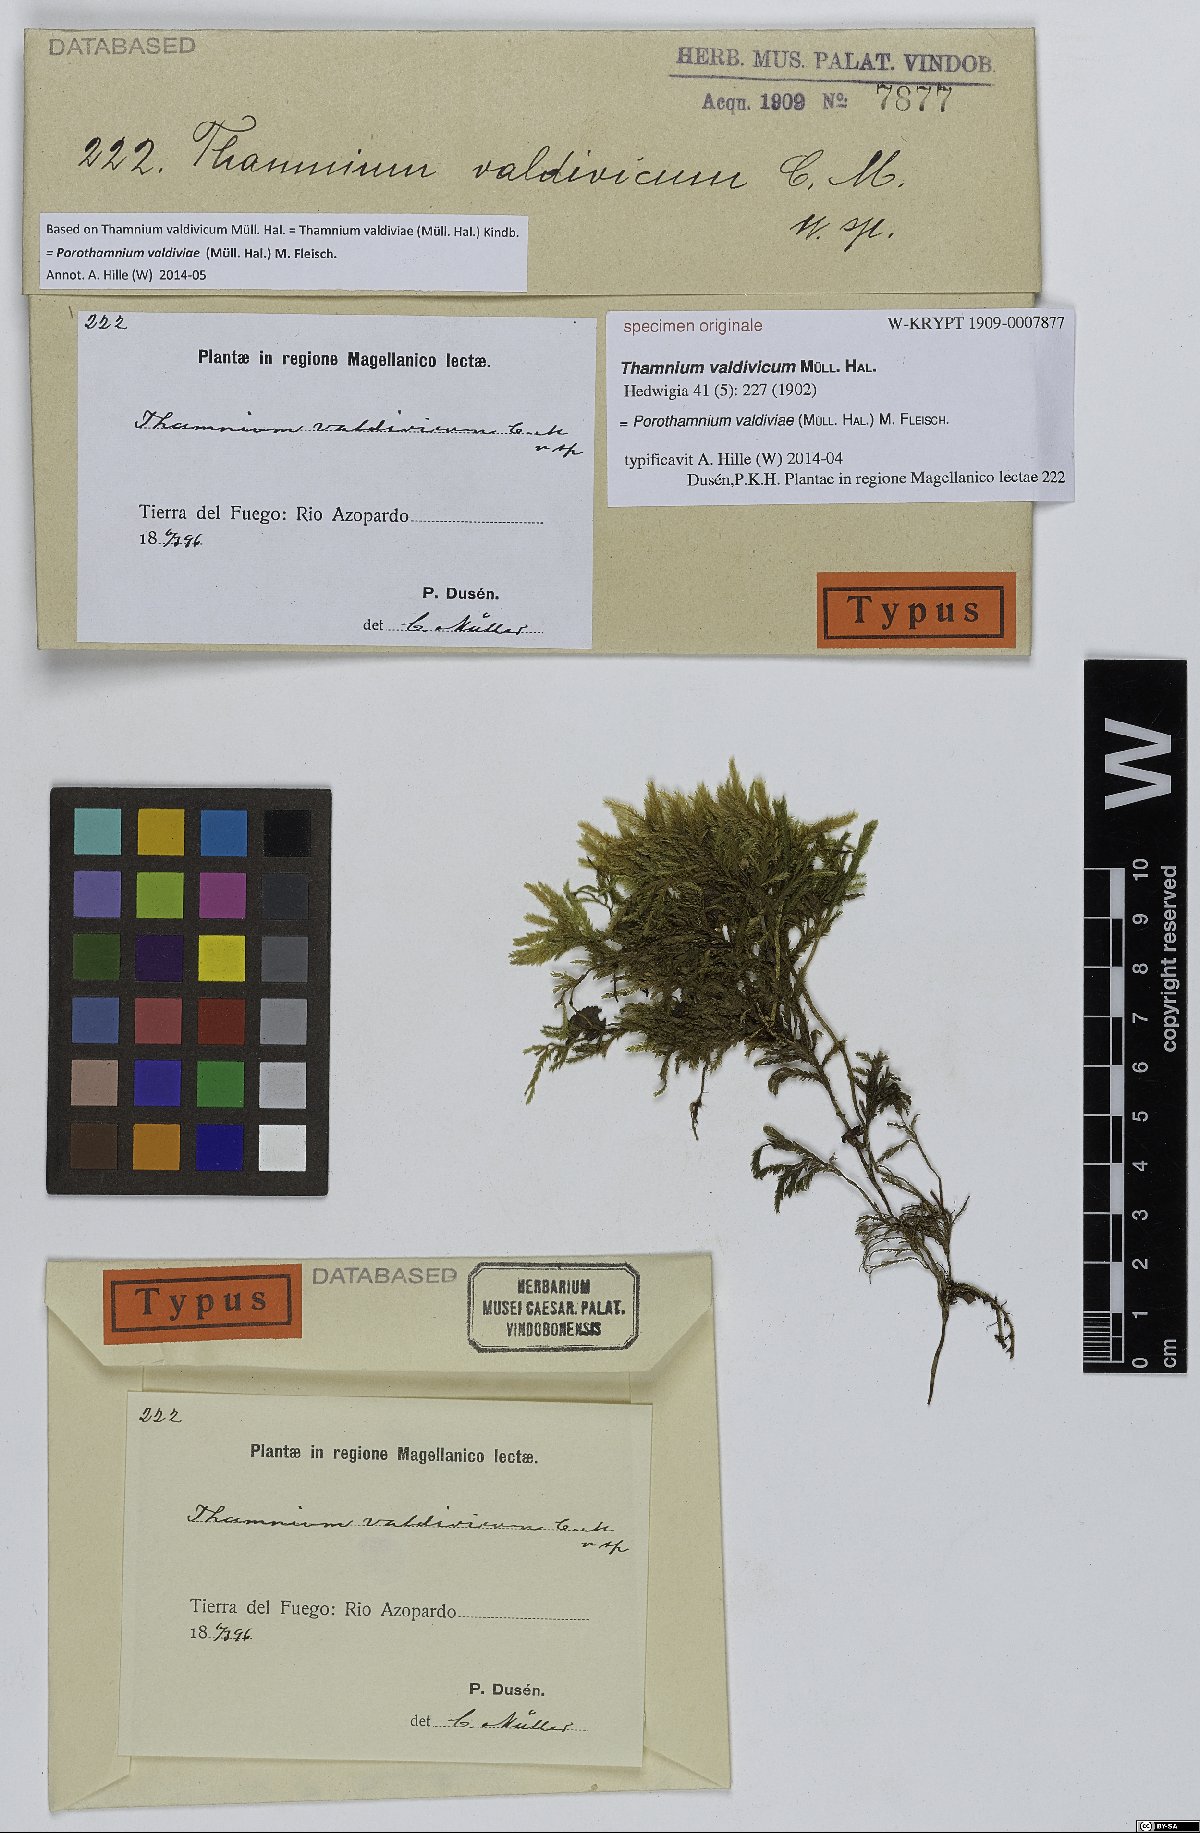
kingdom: Plantae
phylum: Bryophyta
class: Bryopsida
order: Hypnales
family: Neckeraceae
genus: Porotrichum
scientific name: Porotrichum valdiviae
